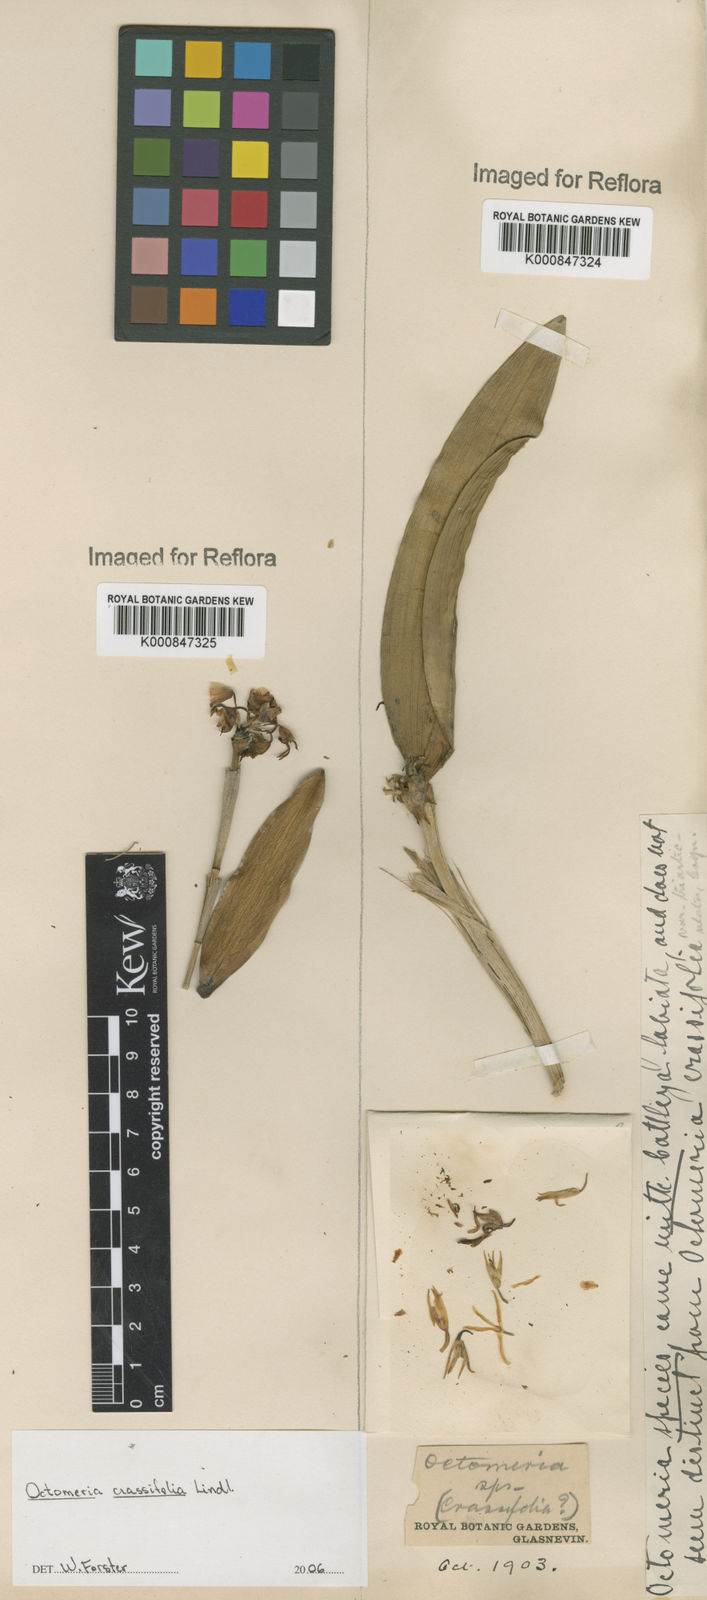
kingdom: Plantae
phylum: Tracheophyta
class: Liliopsida
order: Asparagales
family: Orchidaceae
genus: Octomeria
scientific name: Octomeria crassifolia
